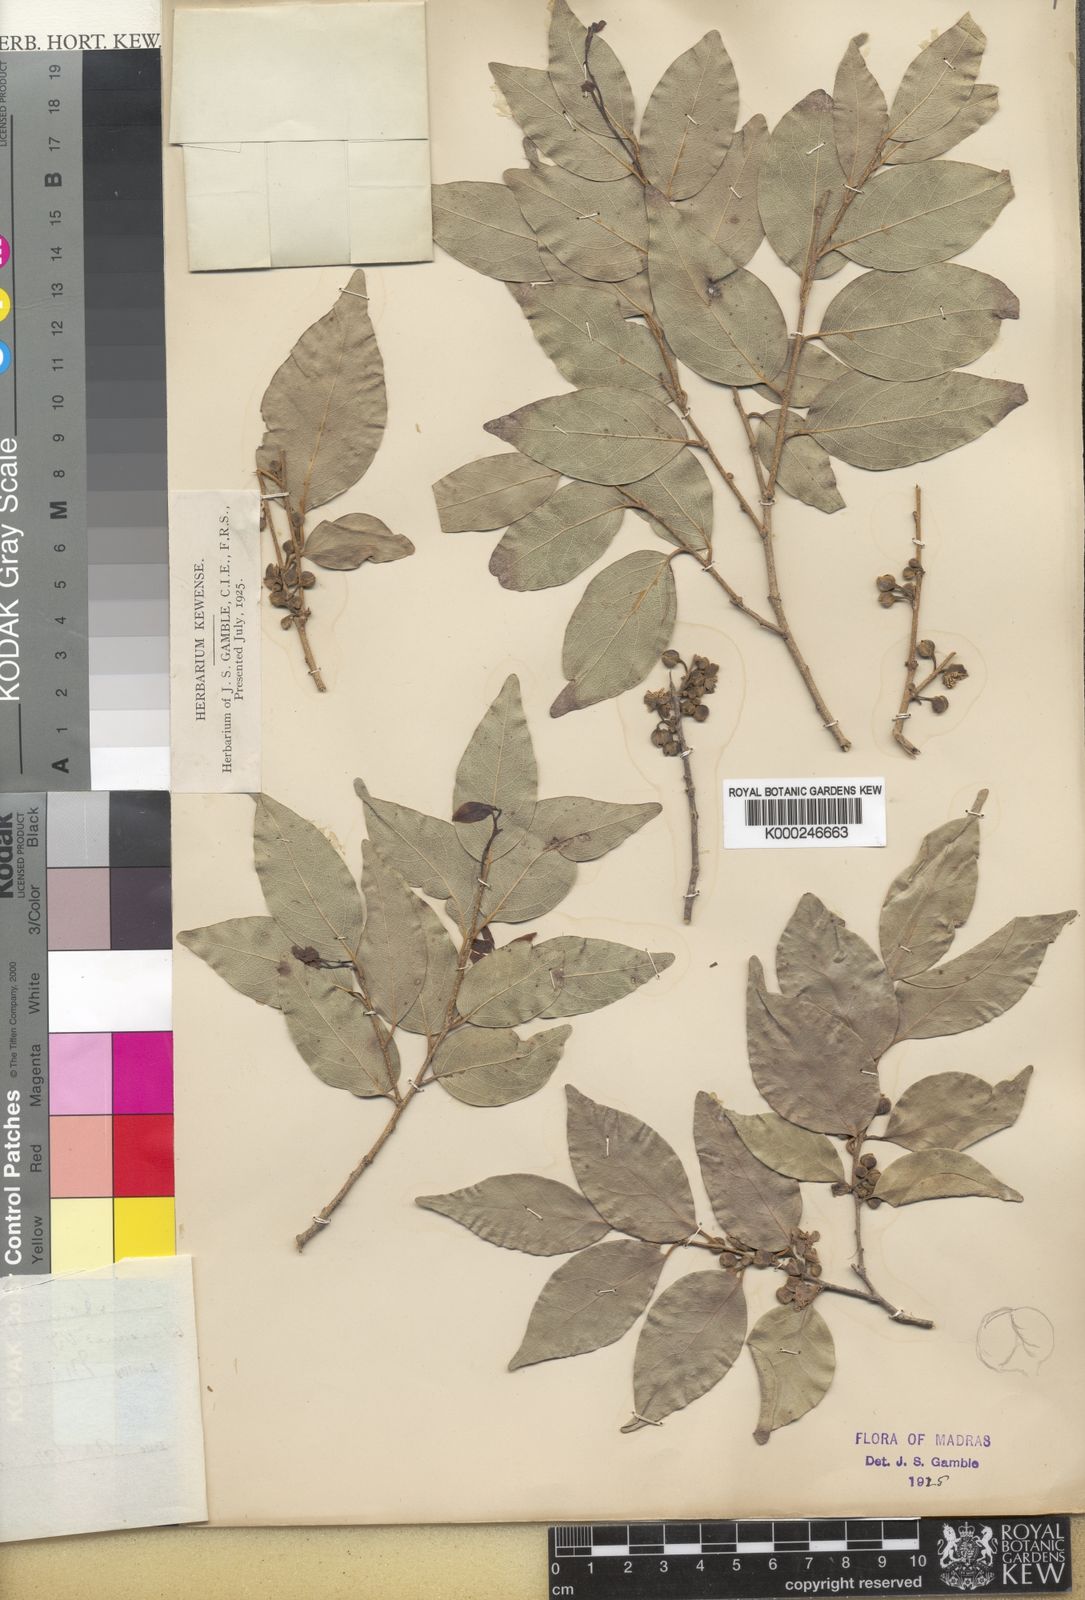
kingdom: Plantae
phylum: Tracheophyta
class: Magnoliopsida
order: Malpighiales
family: Putranjivaceae
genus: Drypetes
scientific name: Drypetes porteri
